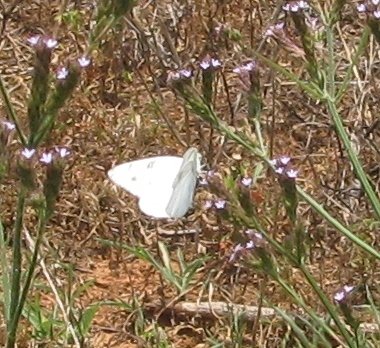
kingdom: Animalia
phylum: Arthropoda
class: Insecta
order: Lepidoptera
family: Pieridae
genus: Pontia
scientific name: Pontia protodice
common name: Checkered White
